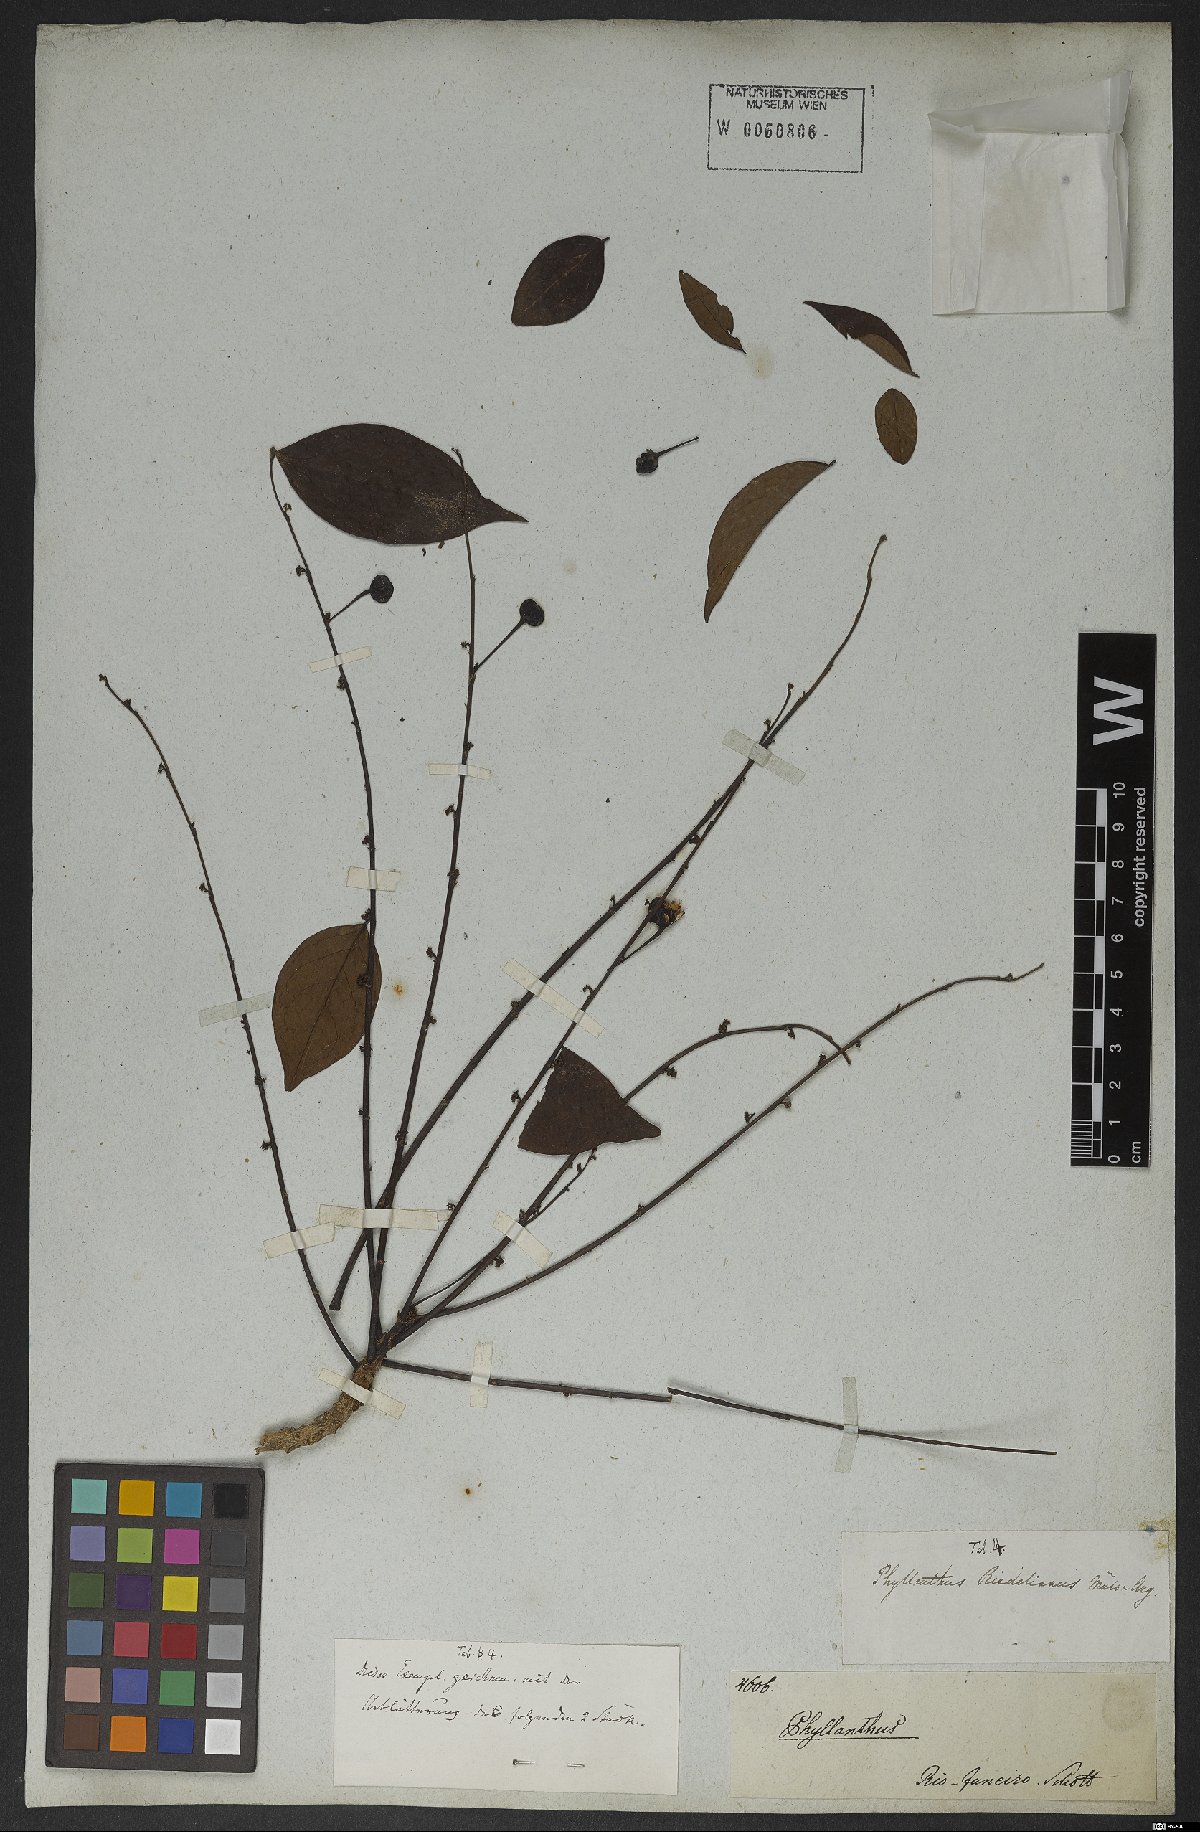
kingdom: Plantae
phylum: Tracheophyta
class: Magnoliopsida
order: Malpighiales
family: Phyllanthaceae
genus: Phyllanthus
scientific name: Phyllanthus riedelianus
